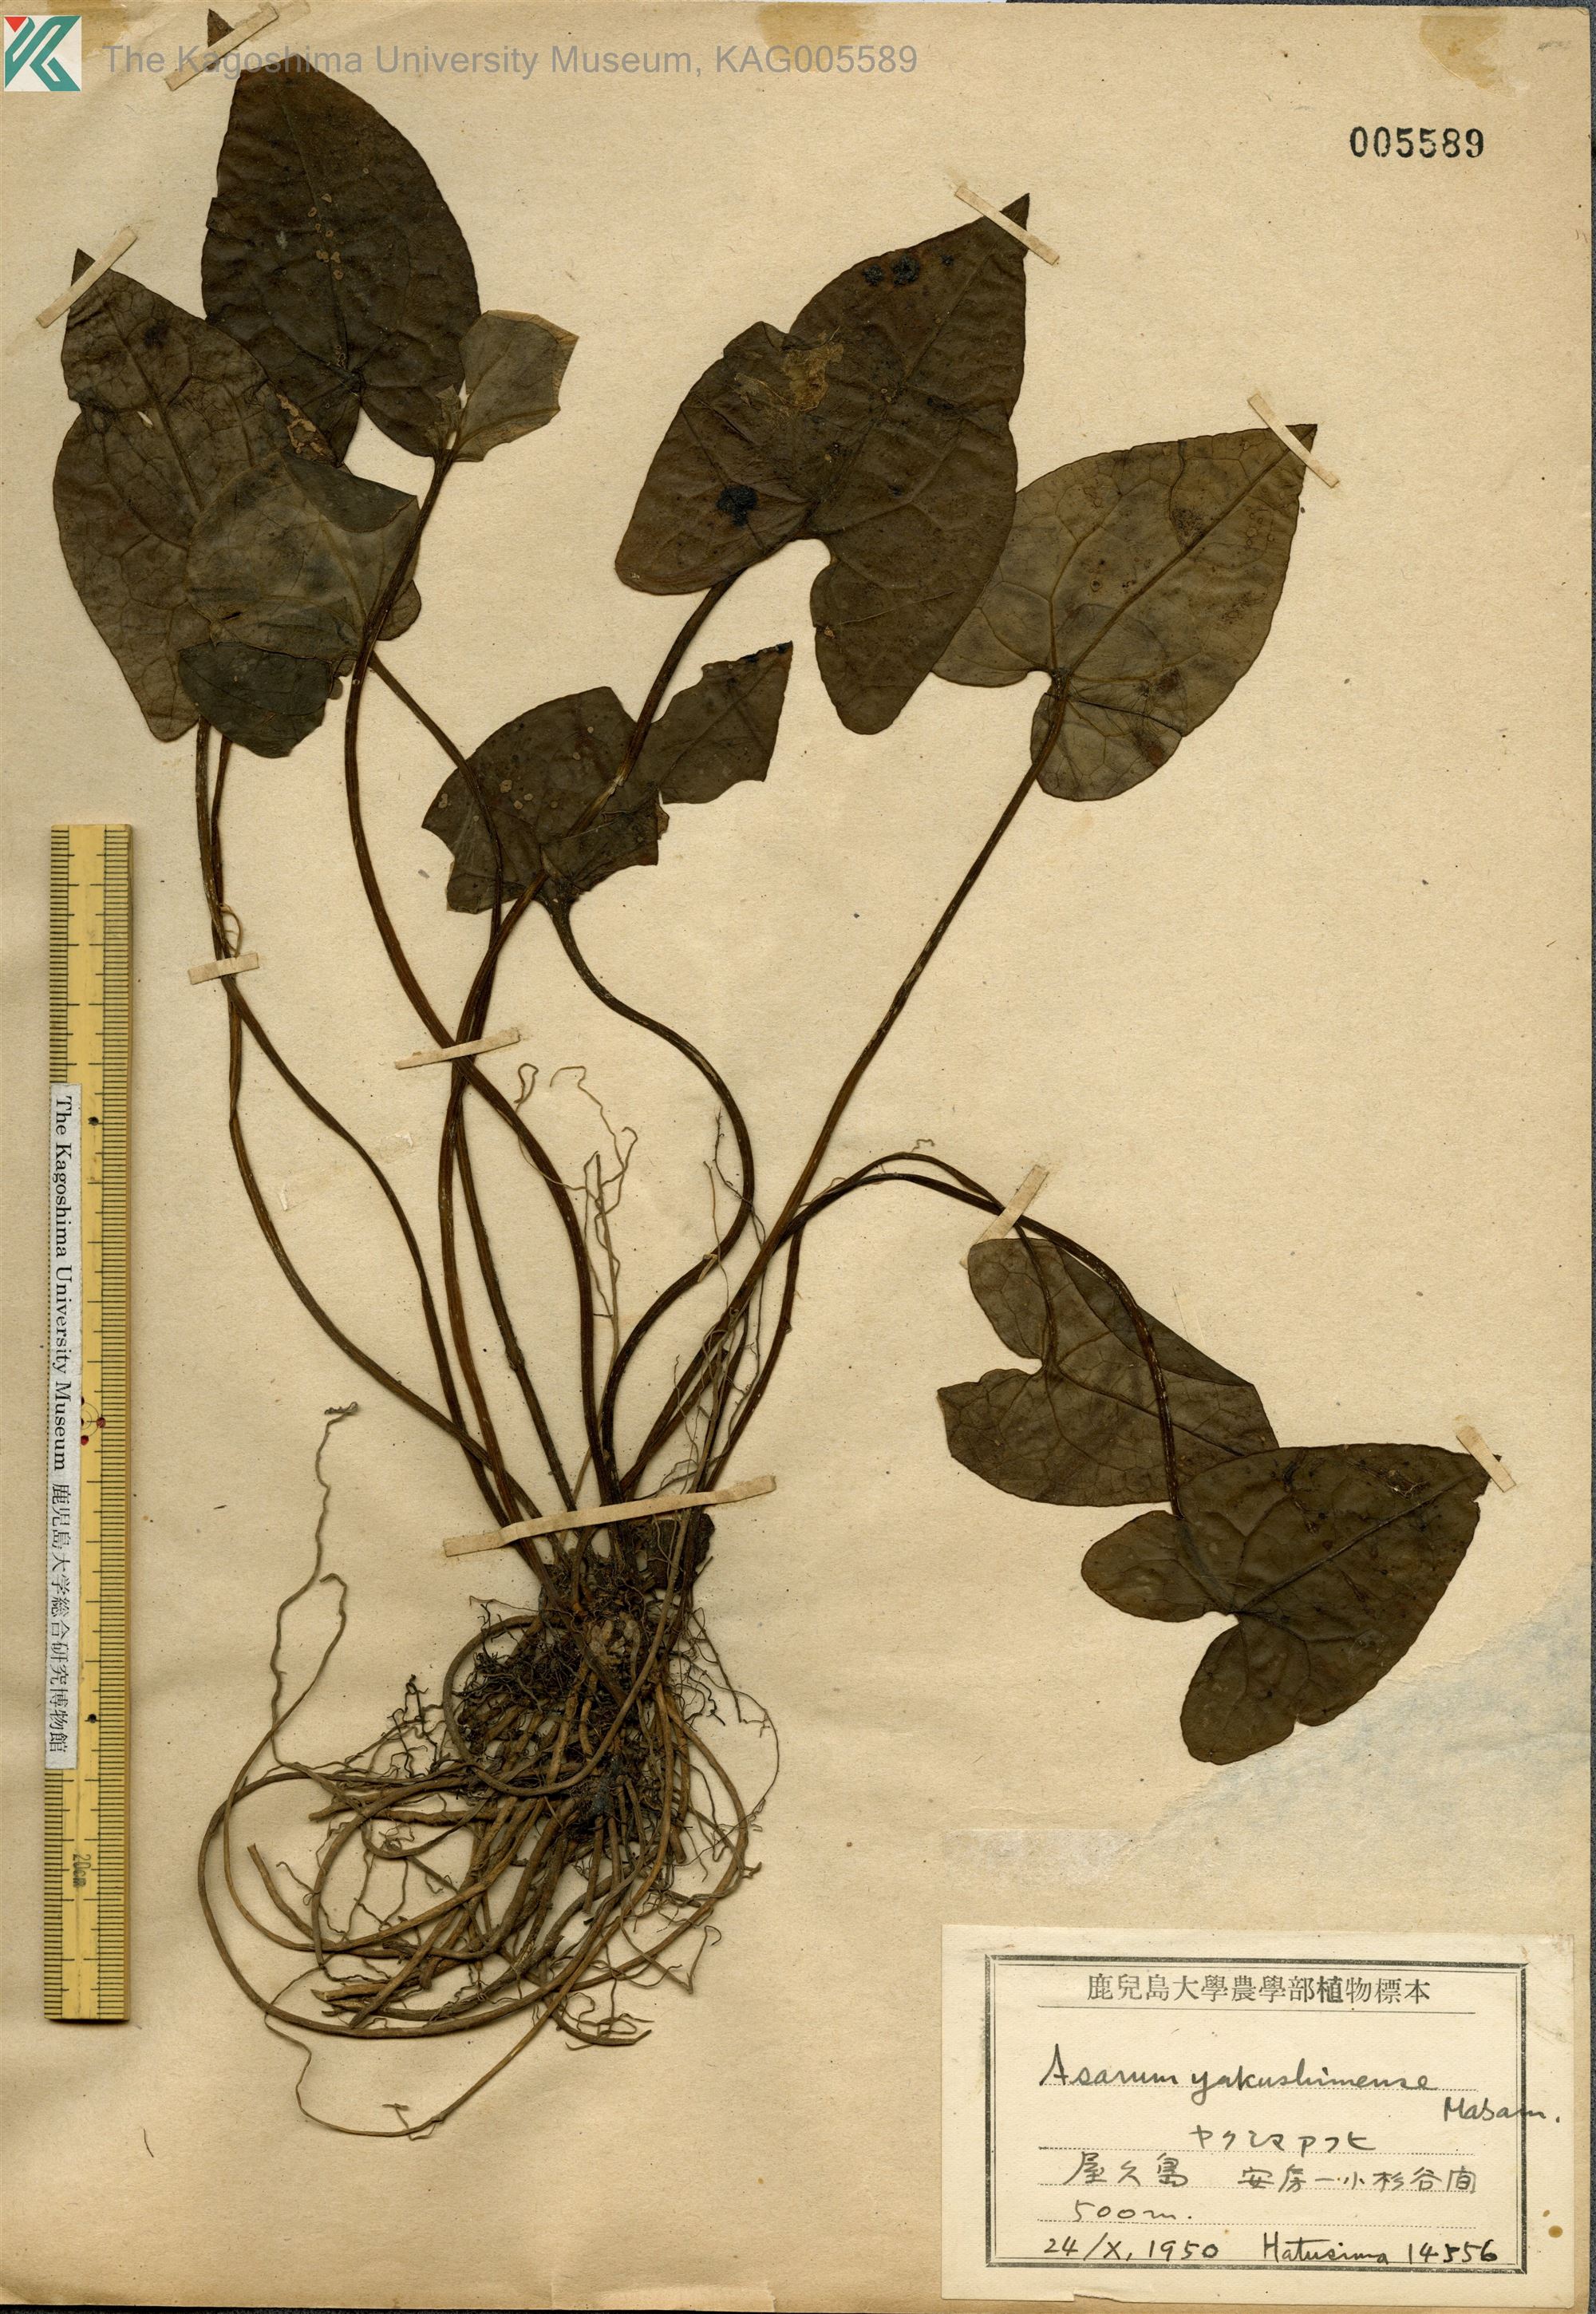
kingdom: Plantae
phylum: Tracheophyta
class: Magnoliopsida
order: Piperales
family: Aristolochiaceae
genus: Asarum
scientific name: Asarum kumageanum
